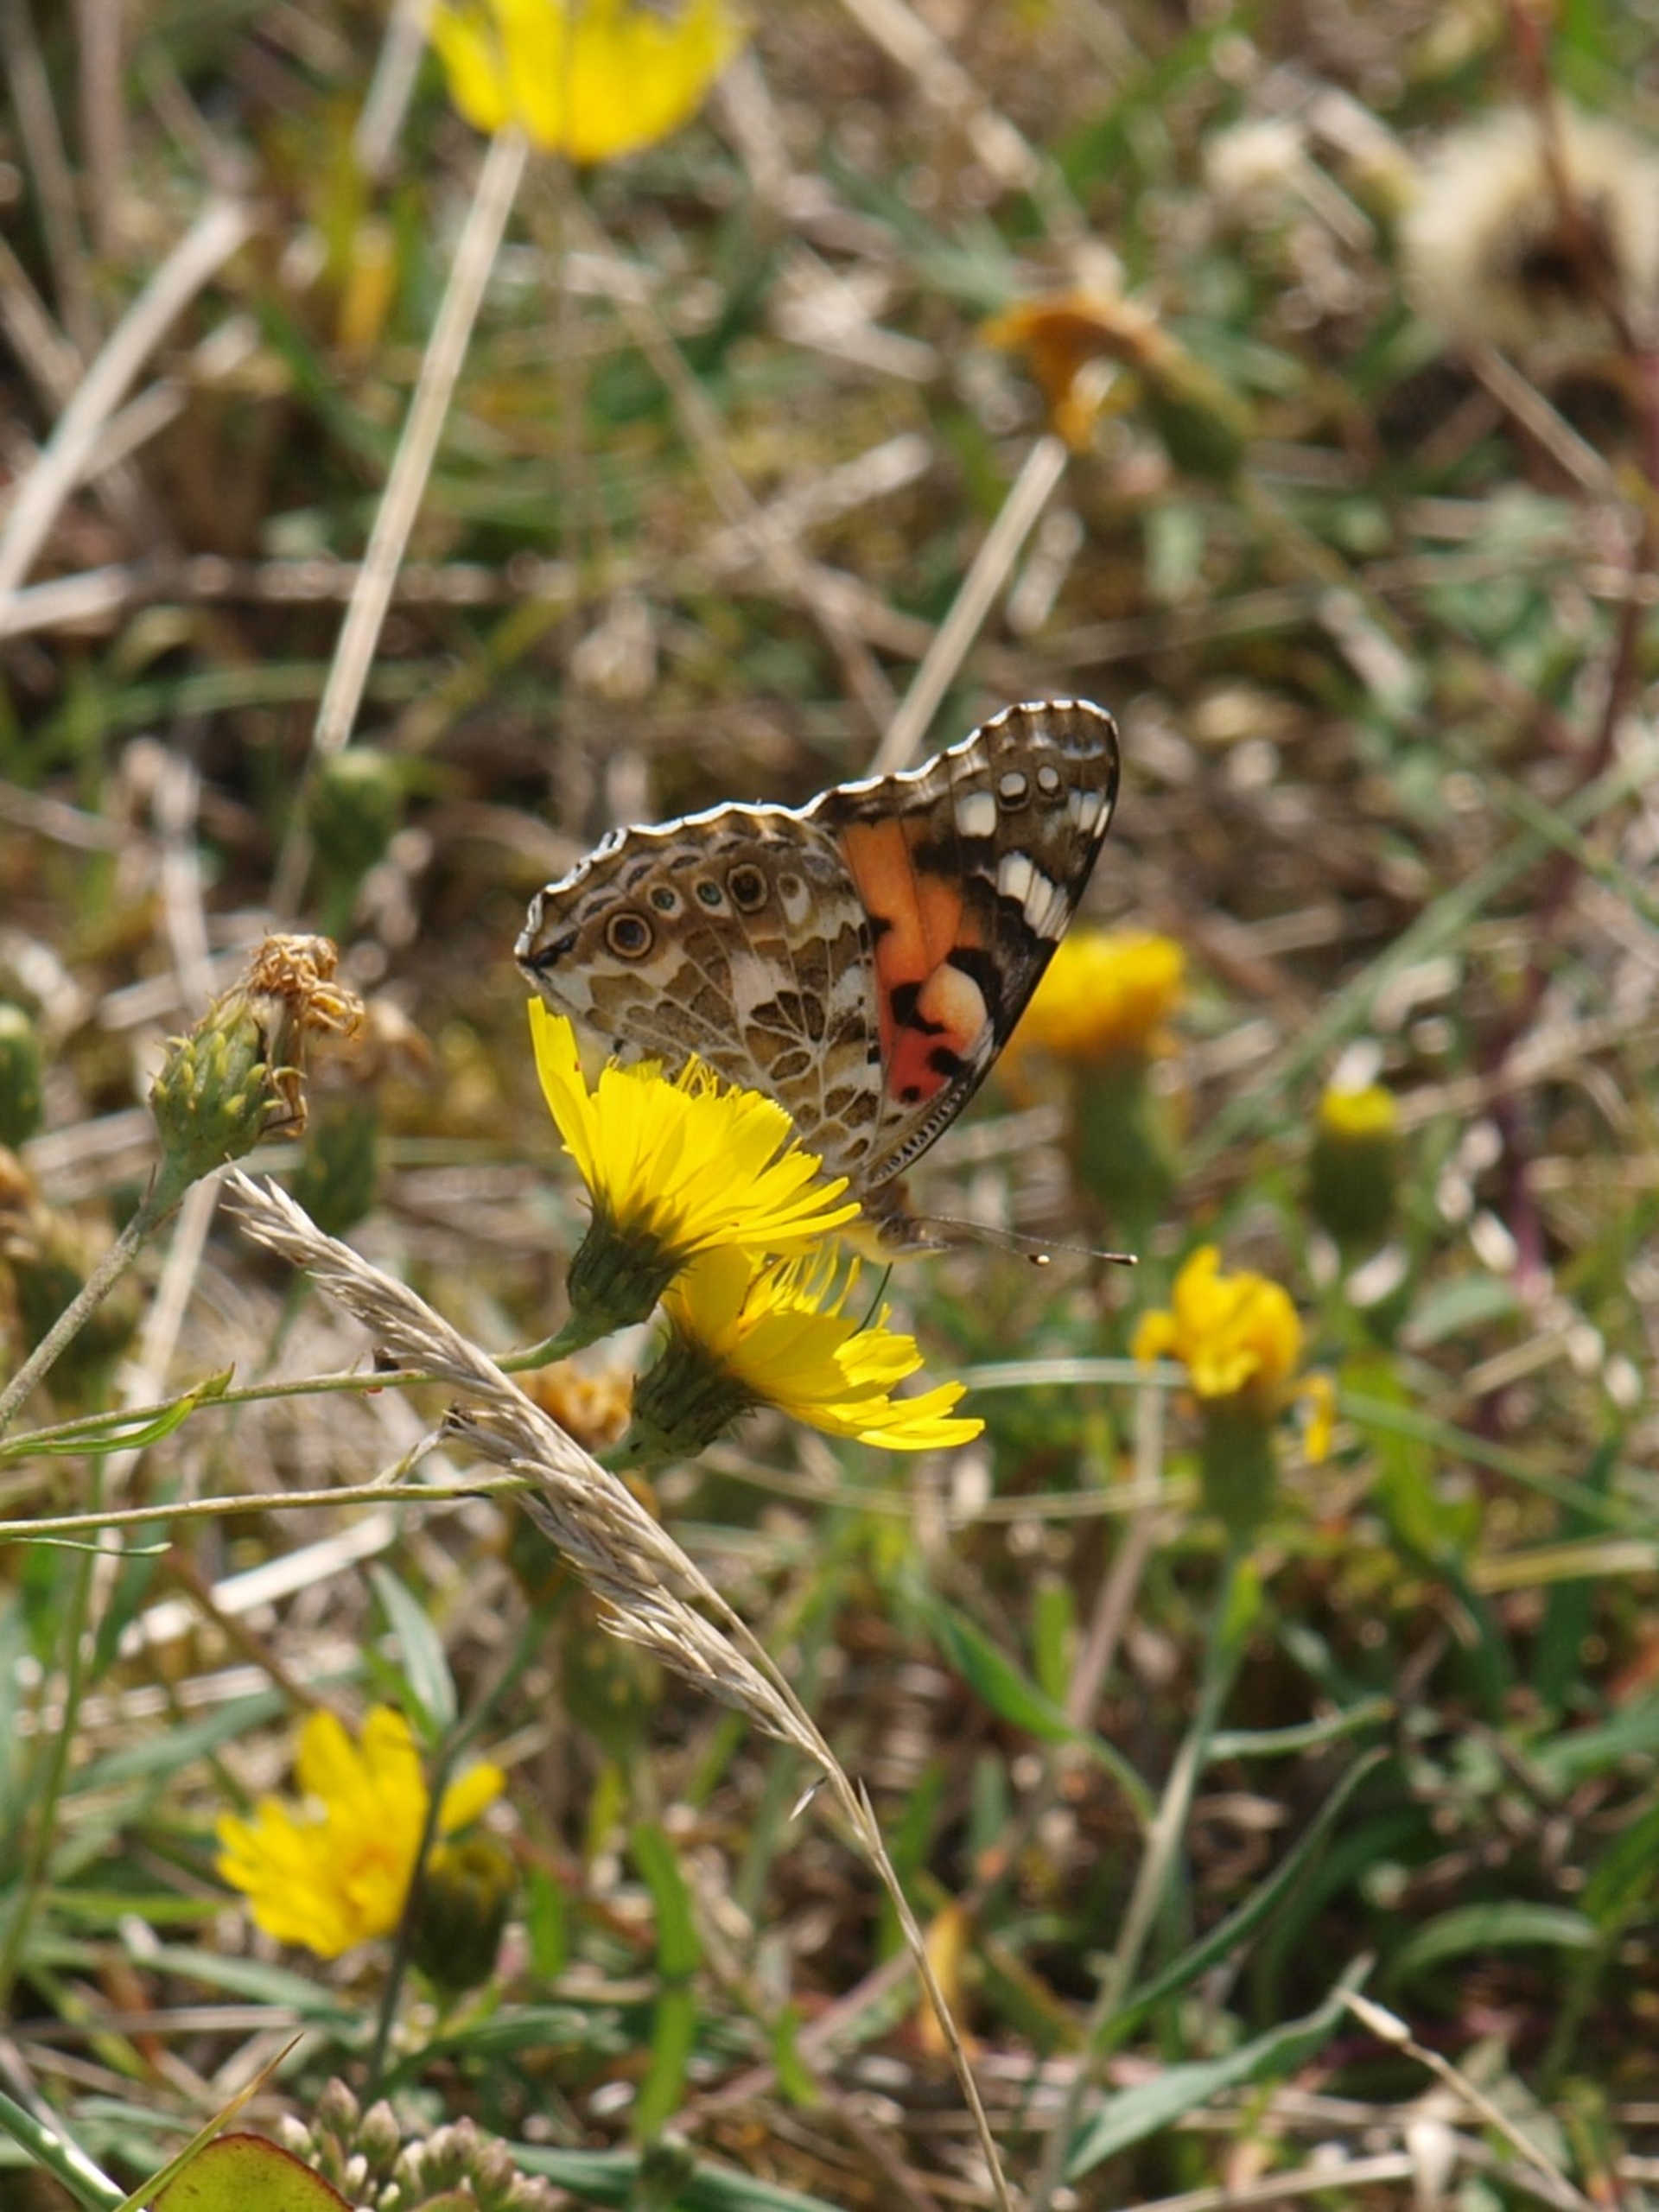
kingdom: Animalia
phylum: Arthropoda
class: Insecta
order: Lepidoptera
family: Nymphalidae
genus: Vanessa
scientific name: Vanessa cardui
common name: Tidselsommerfugl
